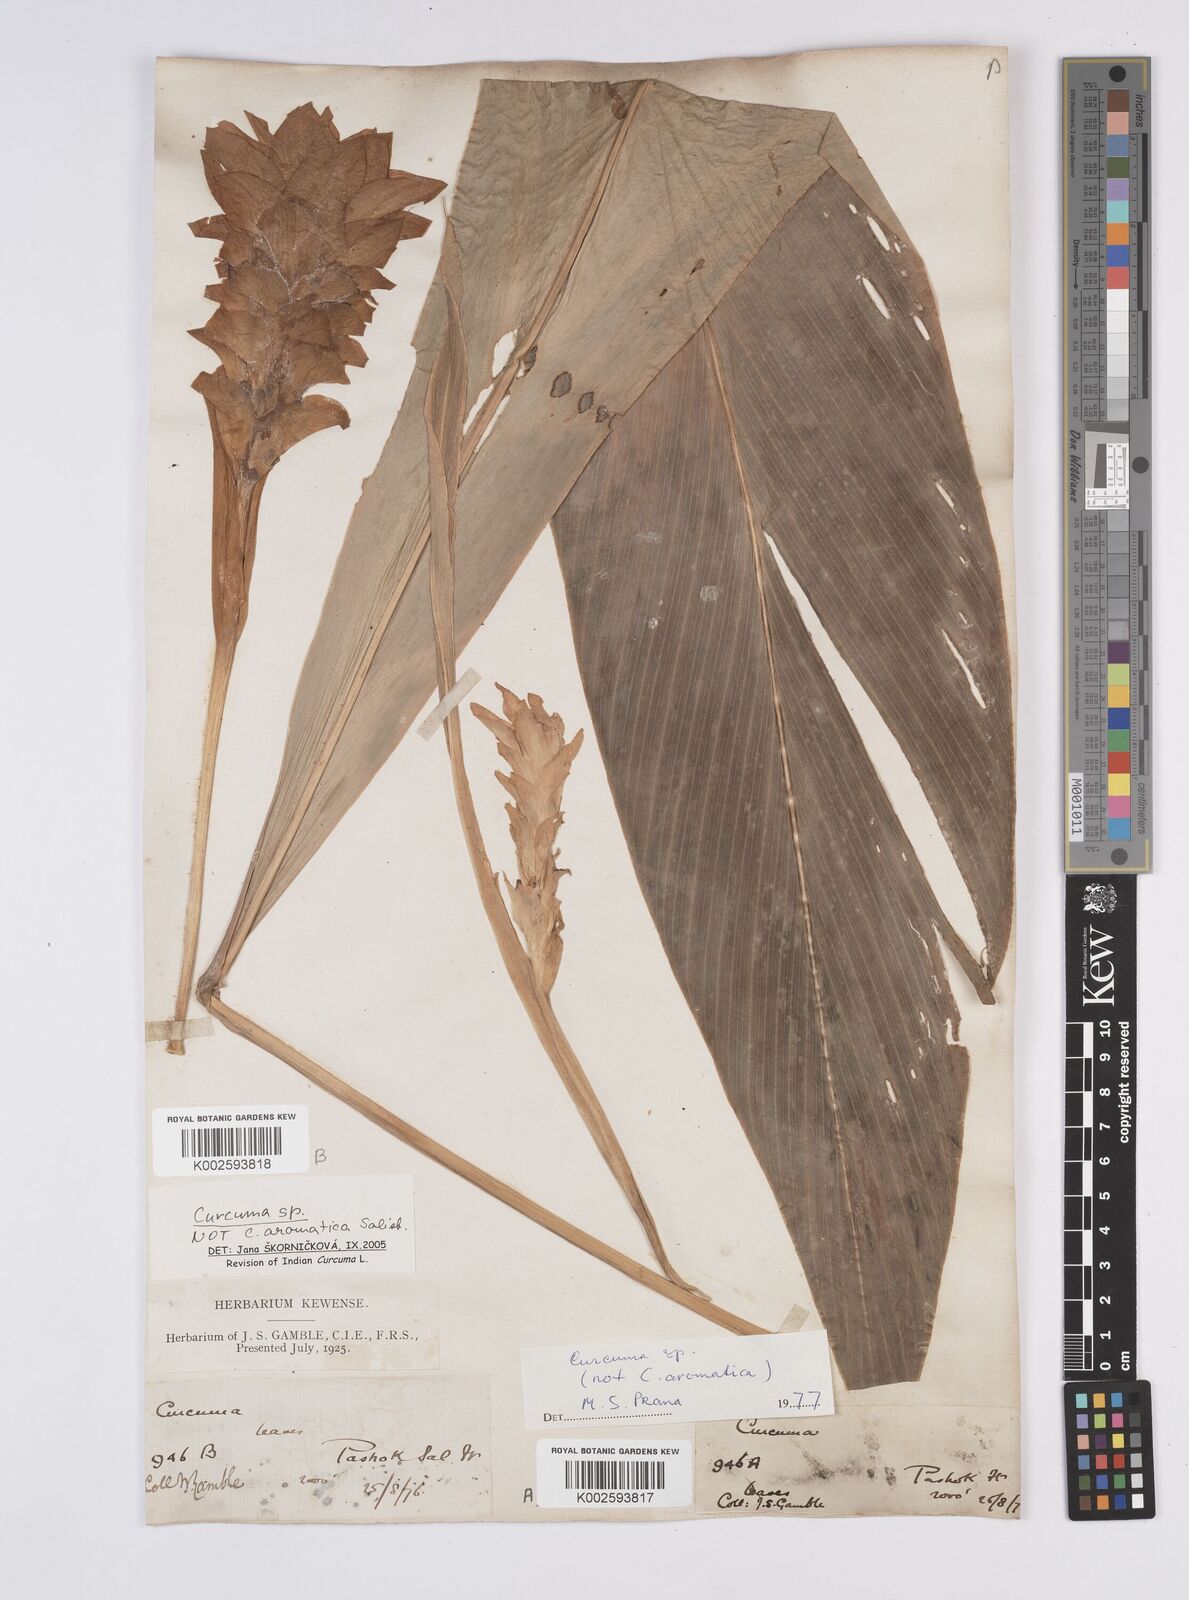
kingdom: Plantae
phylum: Tracheophyta
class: Liliopsida
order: Zingiberales
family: Zingiberaceae
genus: Curcuma
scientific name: Curcuma leucorrhiza
